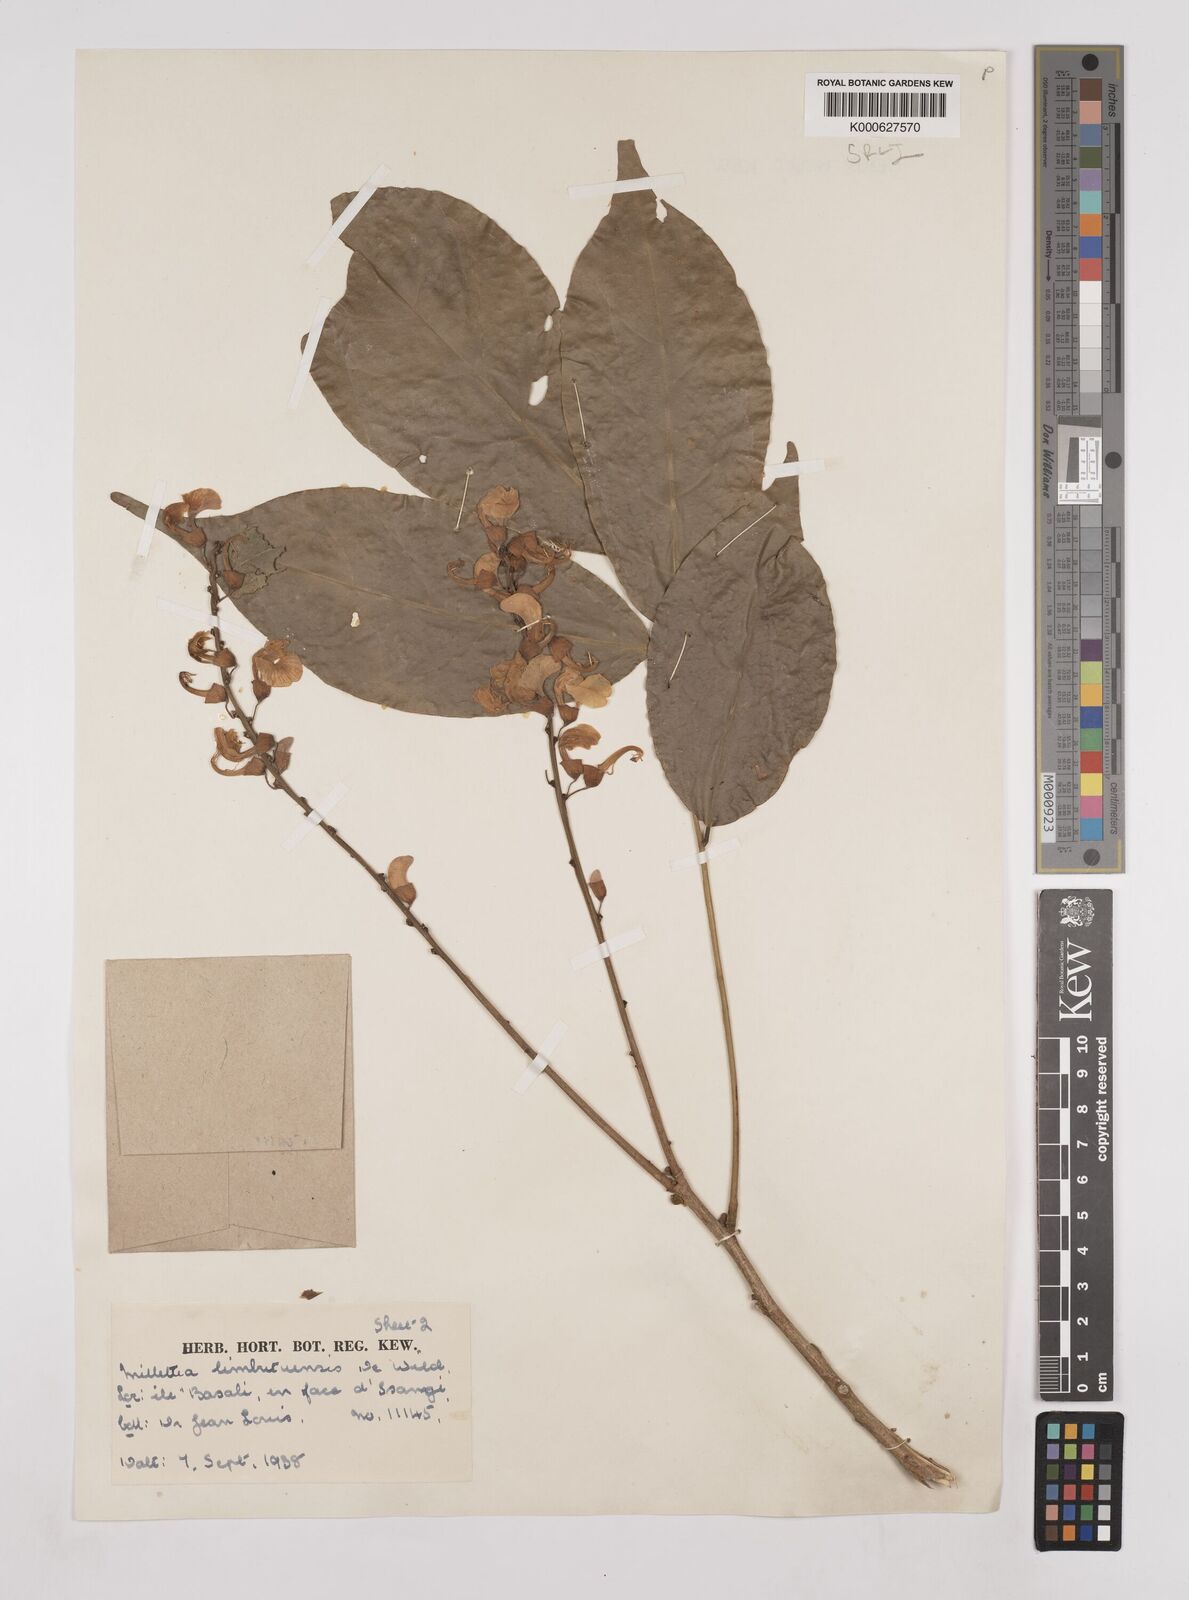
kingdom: Plantae
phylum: Tracheophyta
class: Magnoliopsida
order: Fabales
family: Fabaceae
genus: Millettia
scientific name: Millettia limbutuensis
